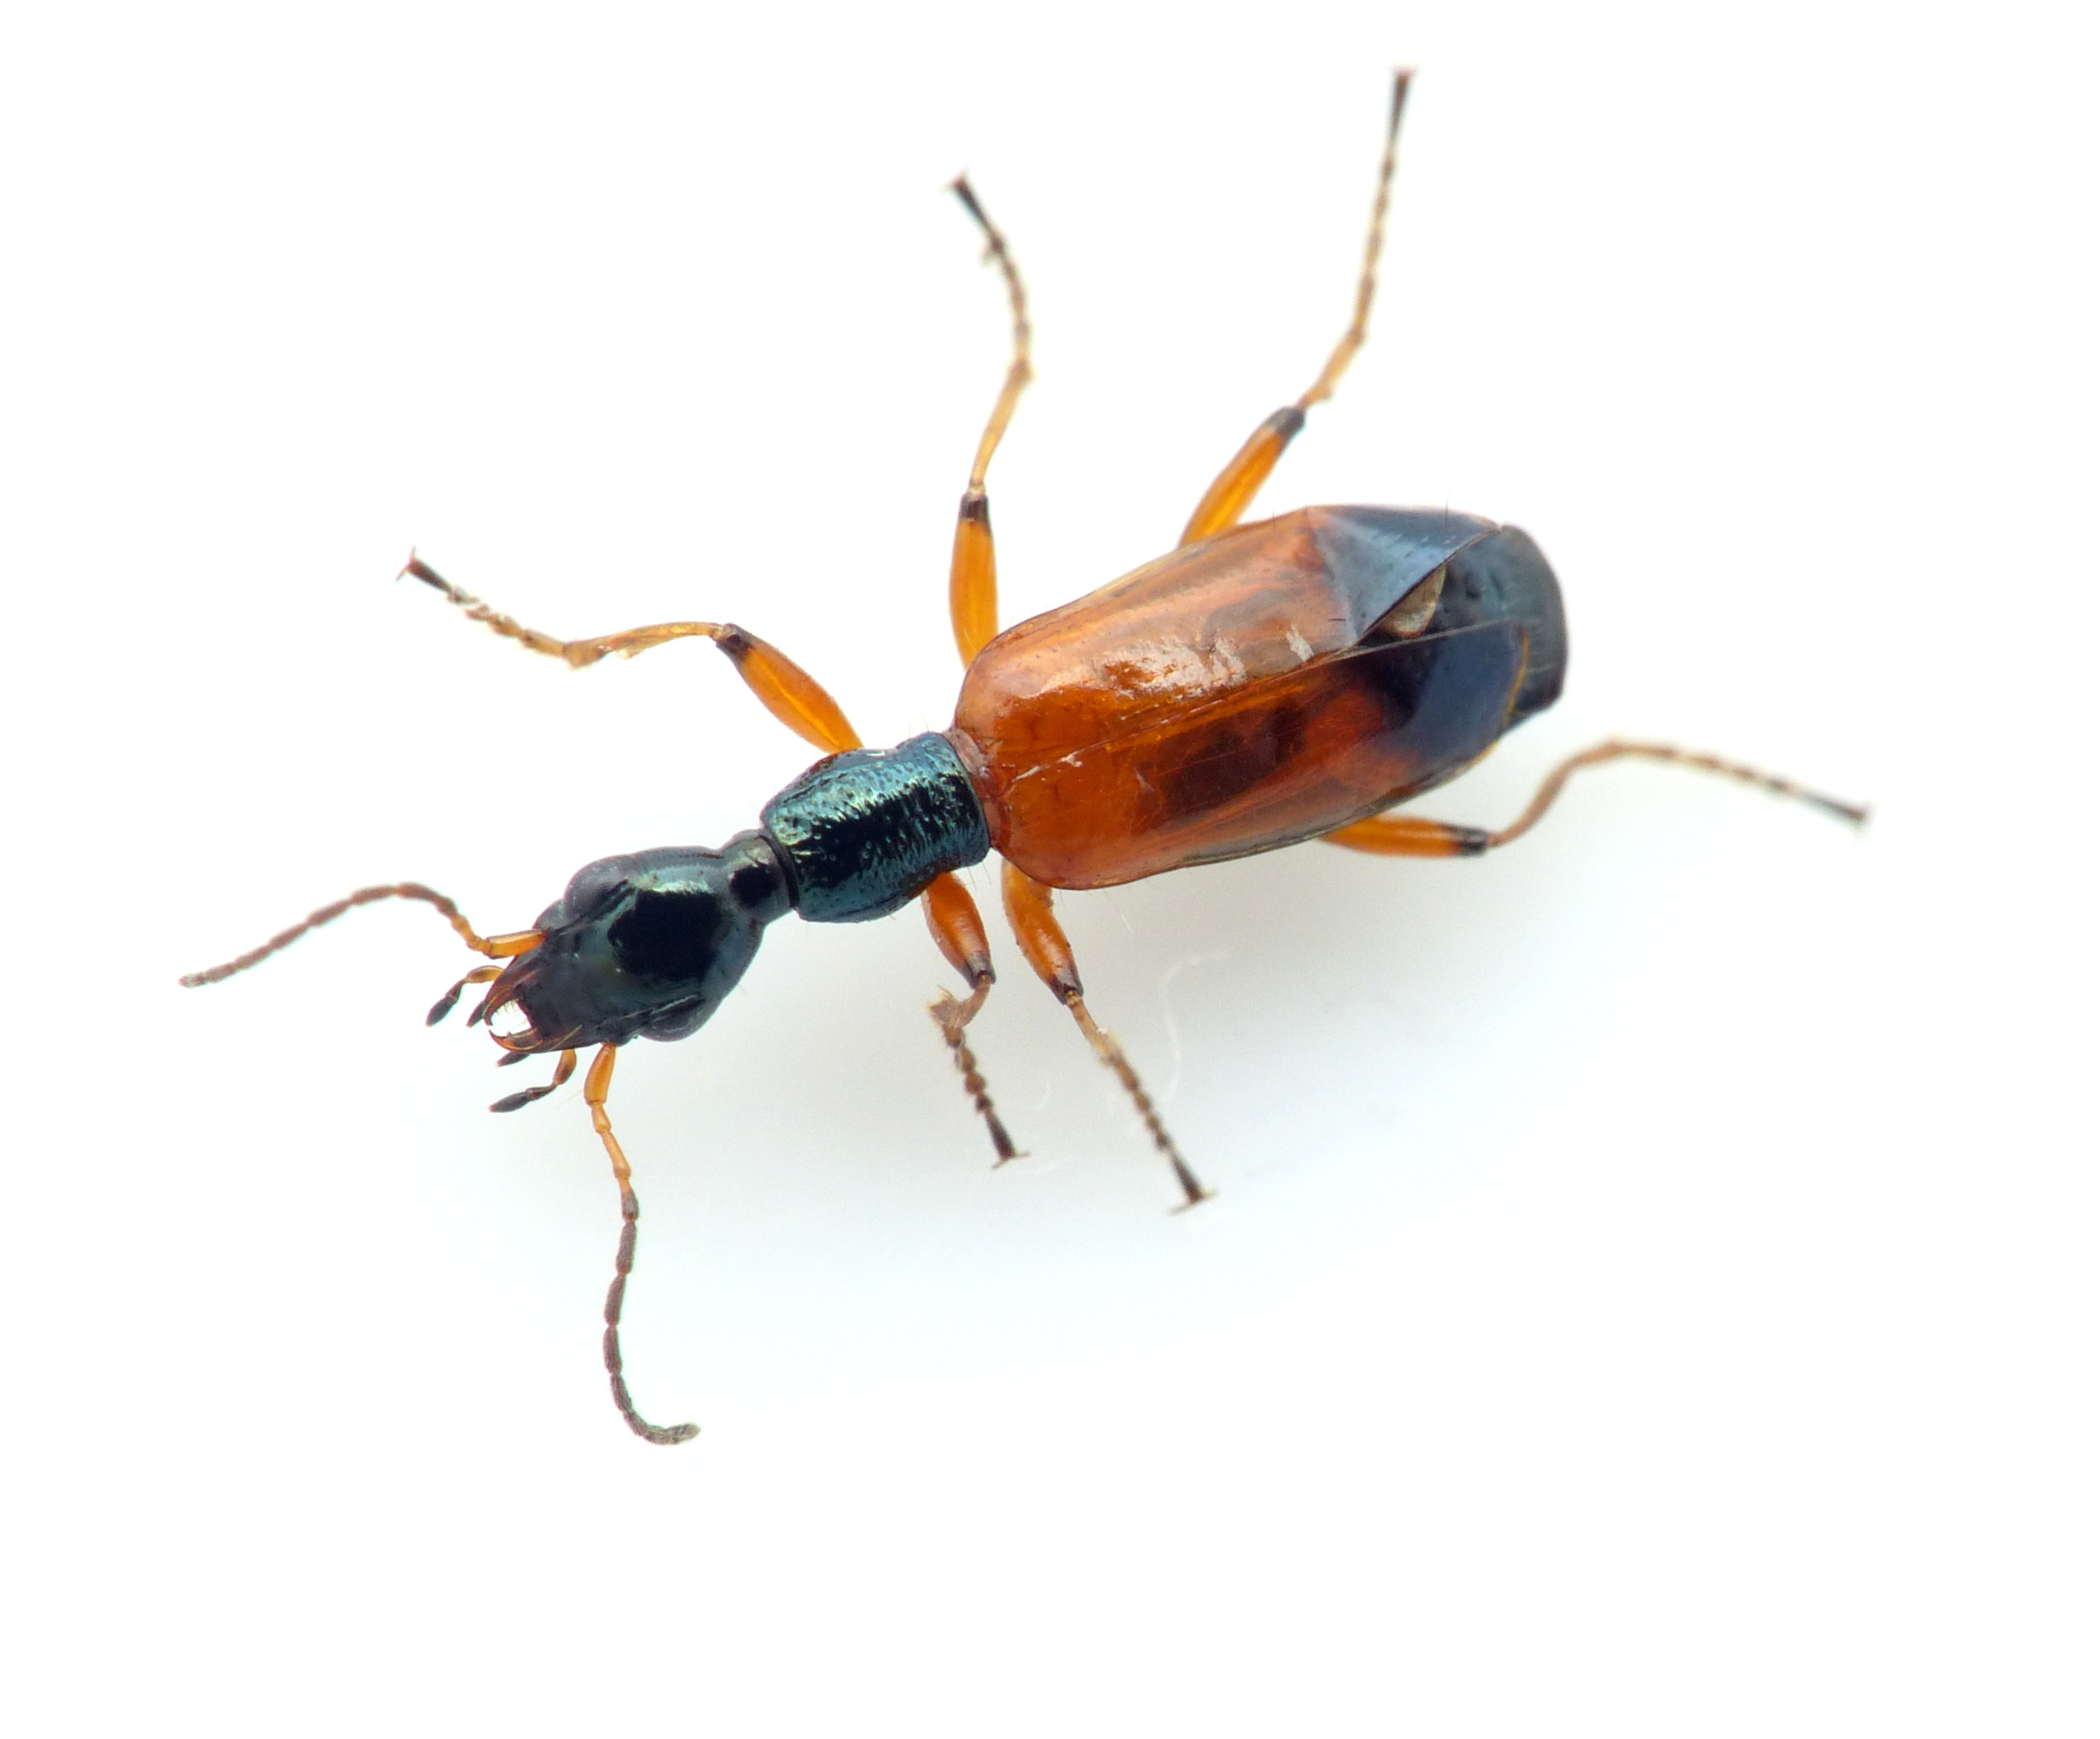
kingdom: Animalia
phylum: Arthropoda
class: Insecta
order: Coleoptera
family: Carabidae
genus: Odacantha
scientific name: Odacantha melanura
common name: Rødløber
